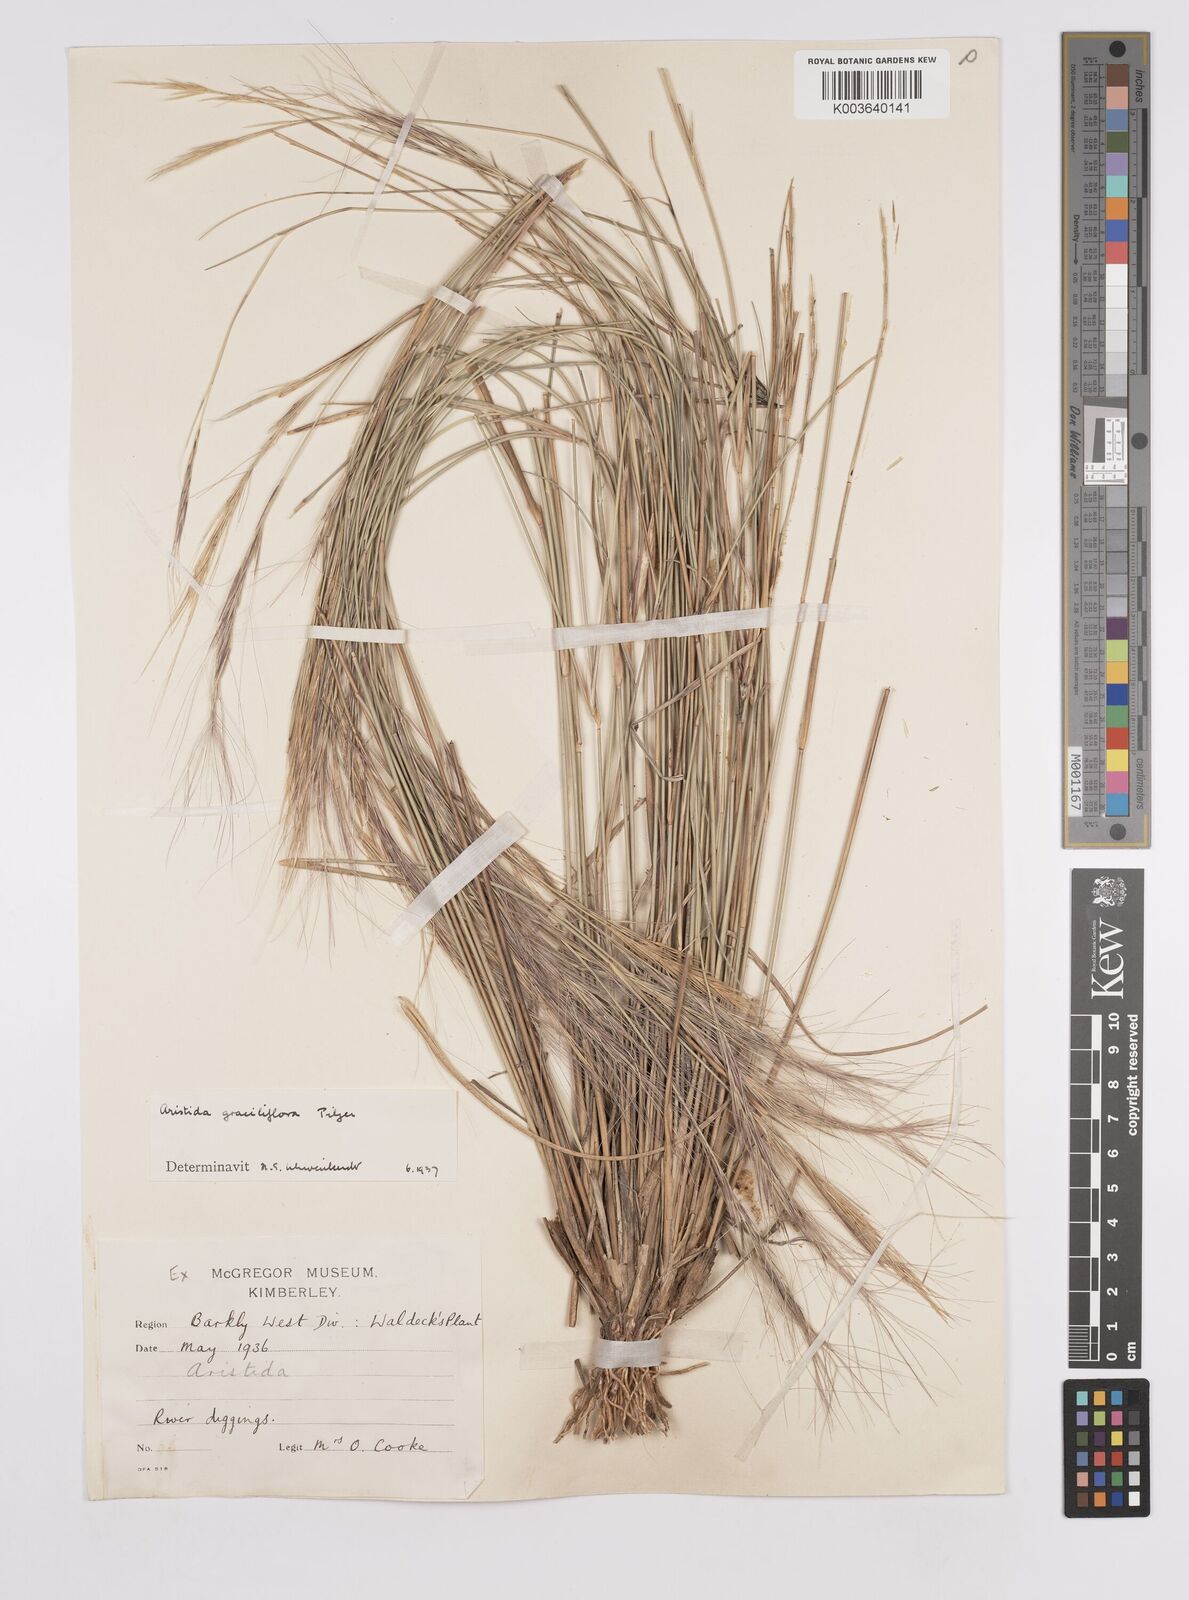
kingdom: Plantae
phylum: Tracheophyta
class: Liliopsida
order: Poales
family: Poaceae
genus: Aristida
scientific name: Aristida stipitata
